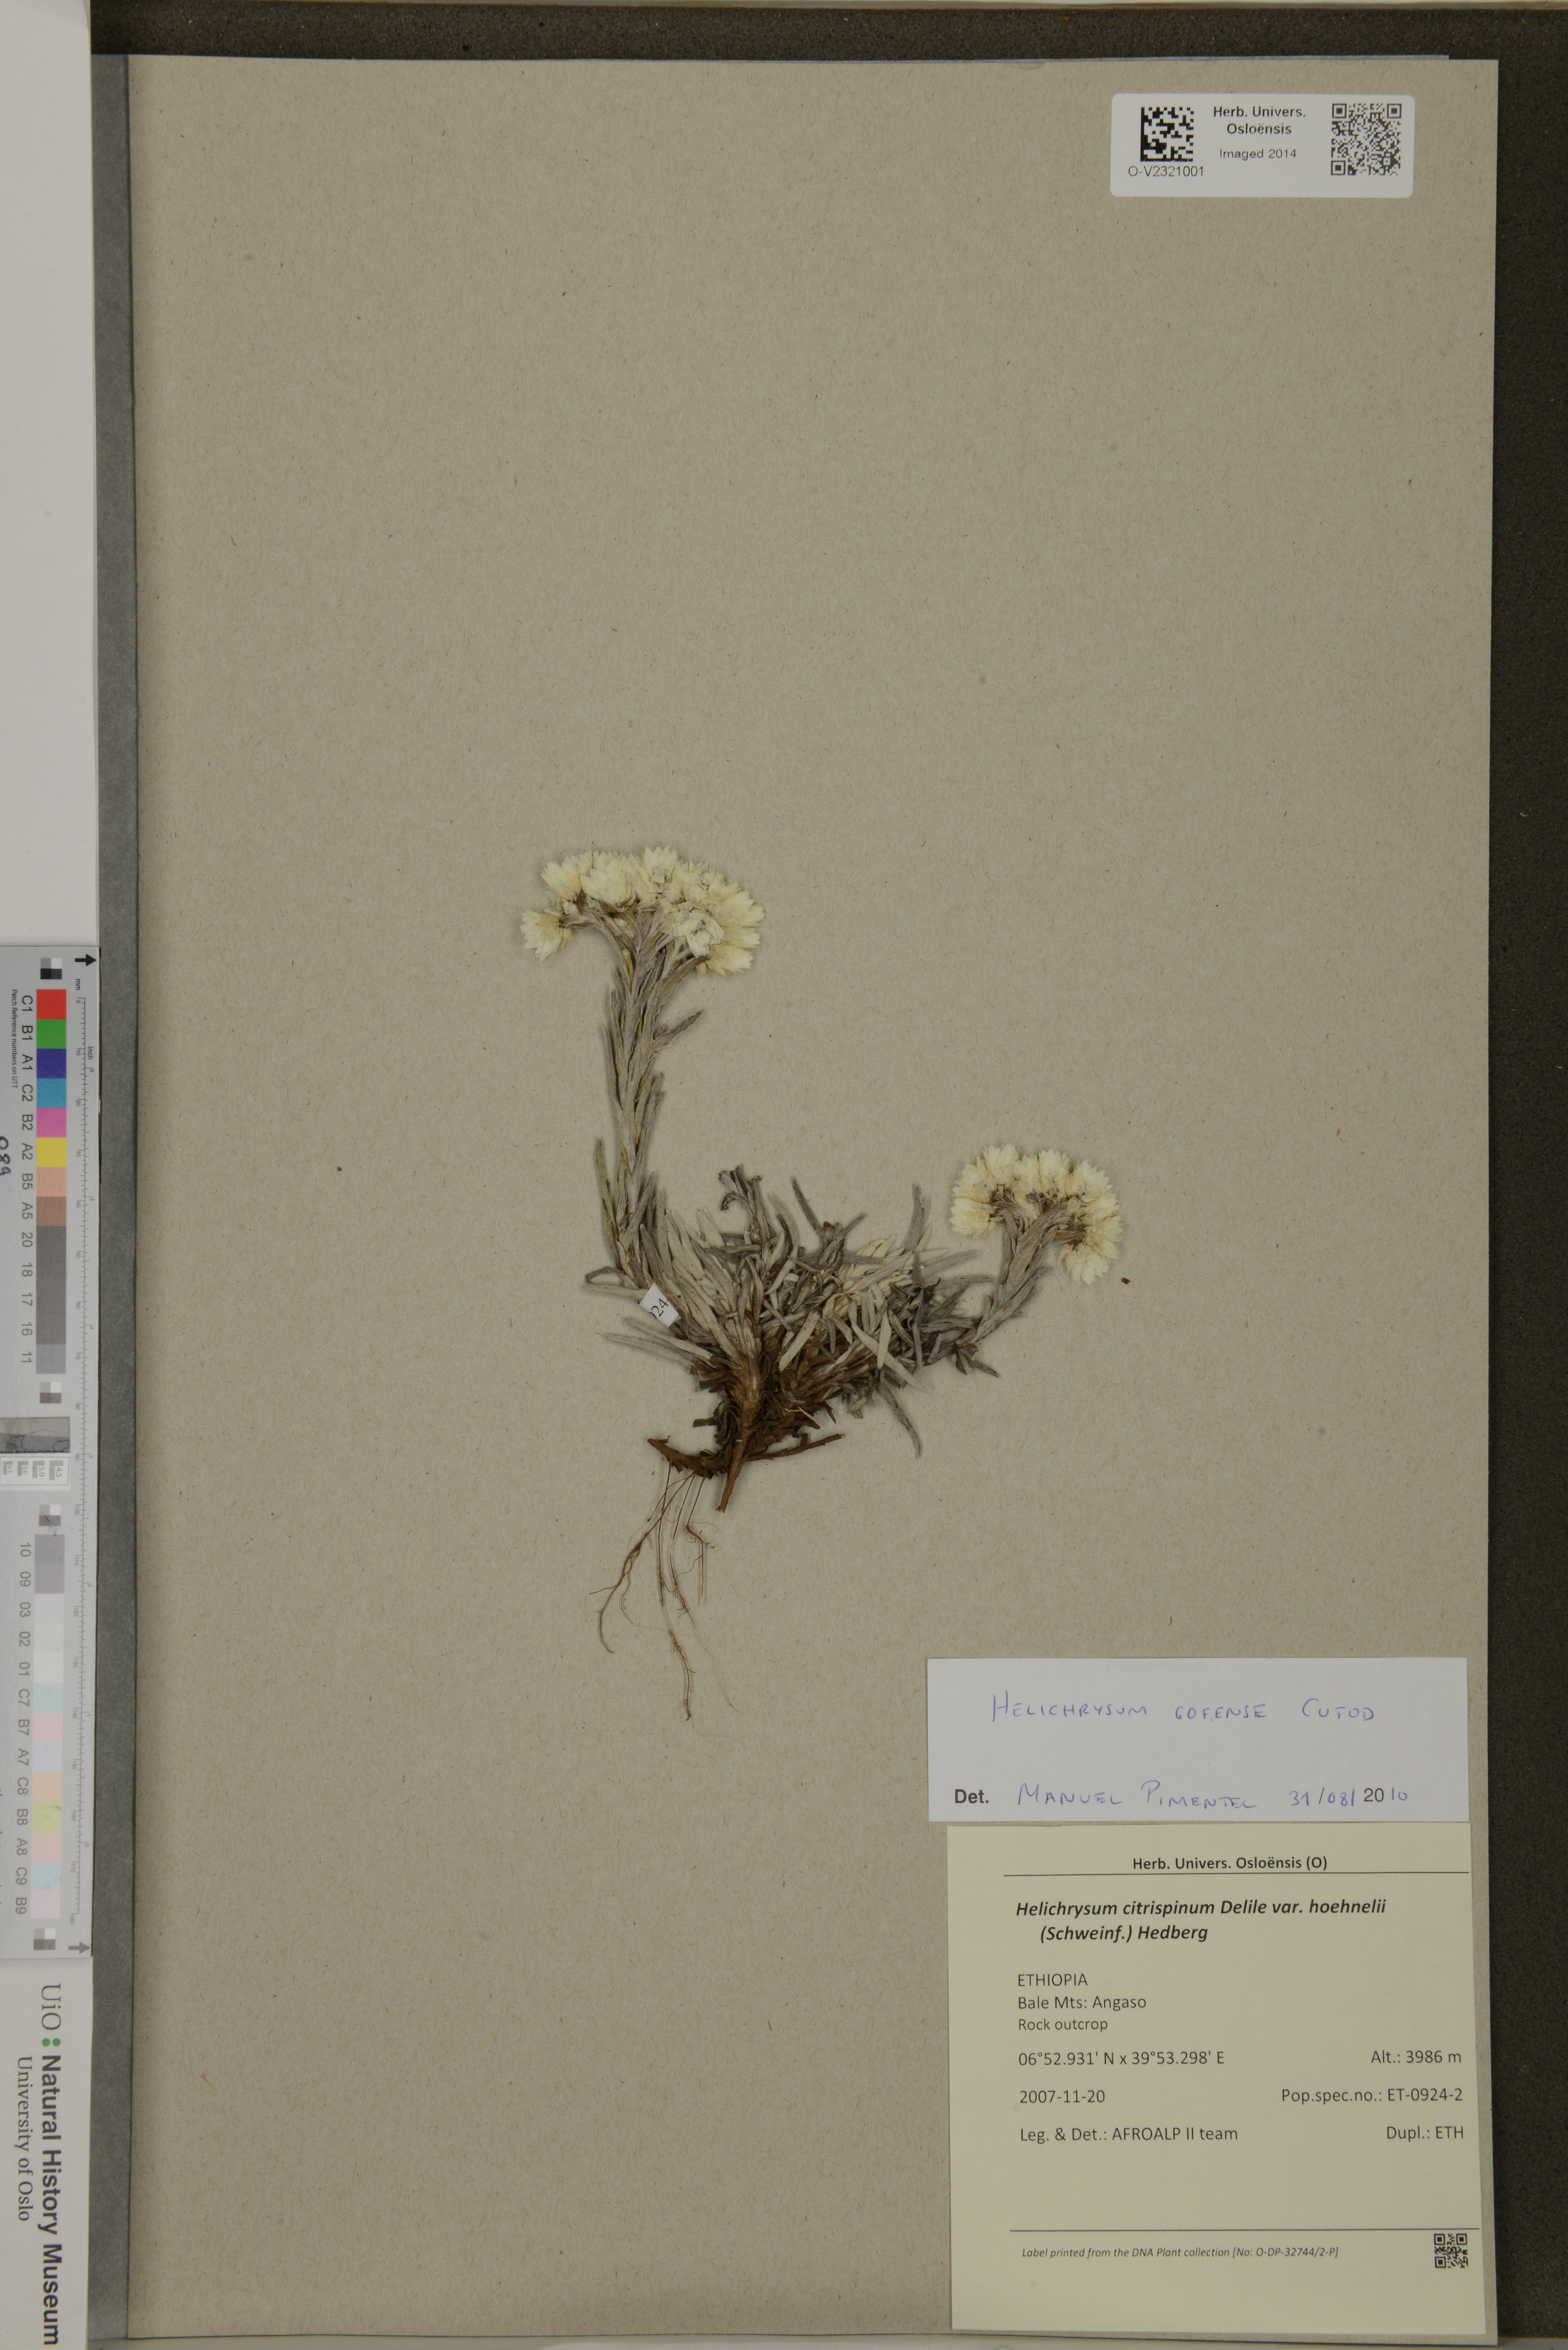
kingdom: Plantae
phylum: Tracheophyta
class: Magnoliopsida
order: Asterales
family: Asteraceae
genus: Helichrysum
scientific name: Helichrysum citrispinum
